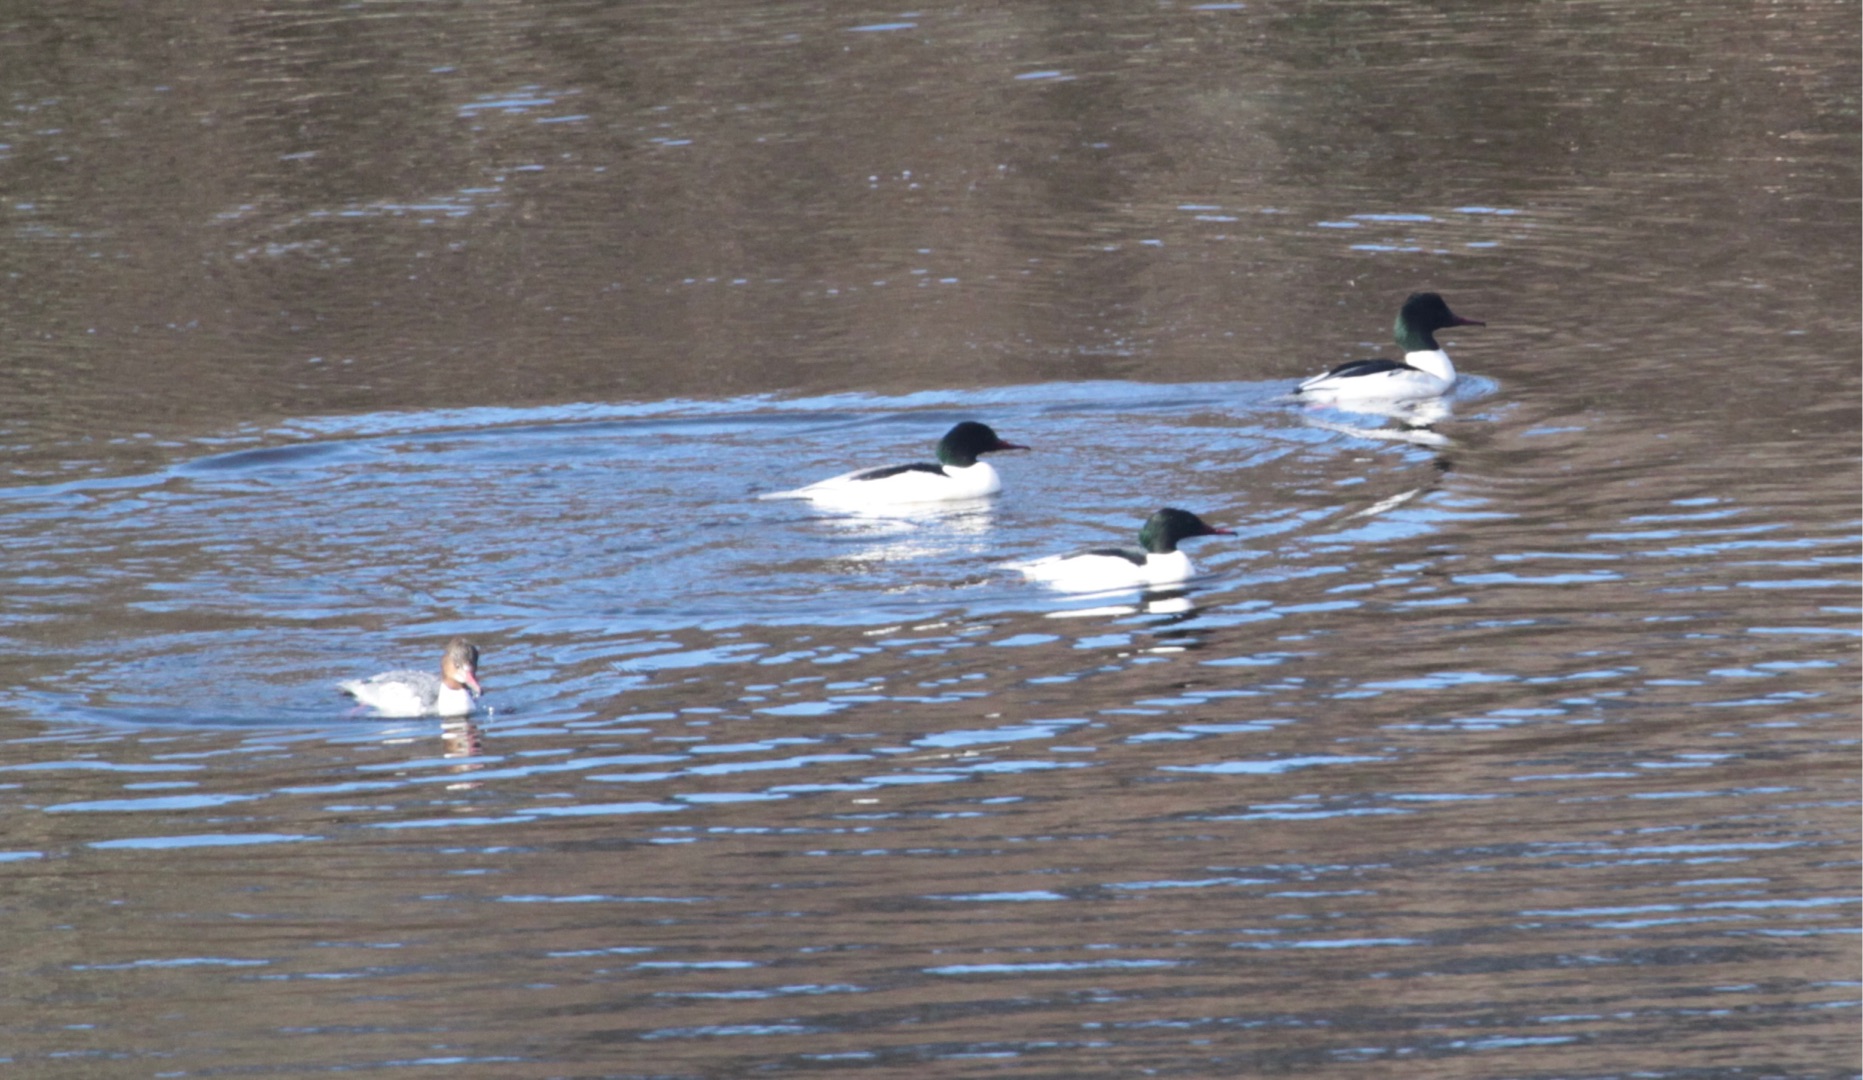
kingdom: Animalia
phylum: Chordata
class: Aves
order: Anseriformes
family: Anatidae
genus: Mergus
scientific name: Mergus merganser
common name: Stor skallesluger
